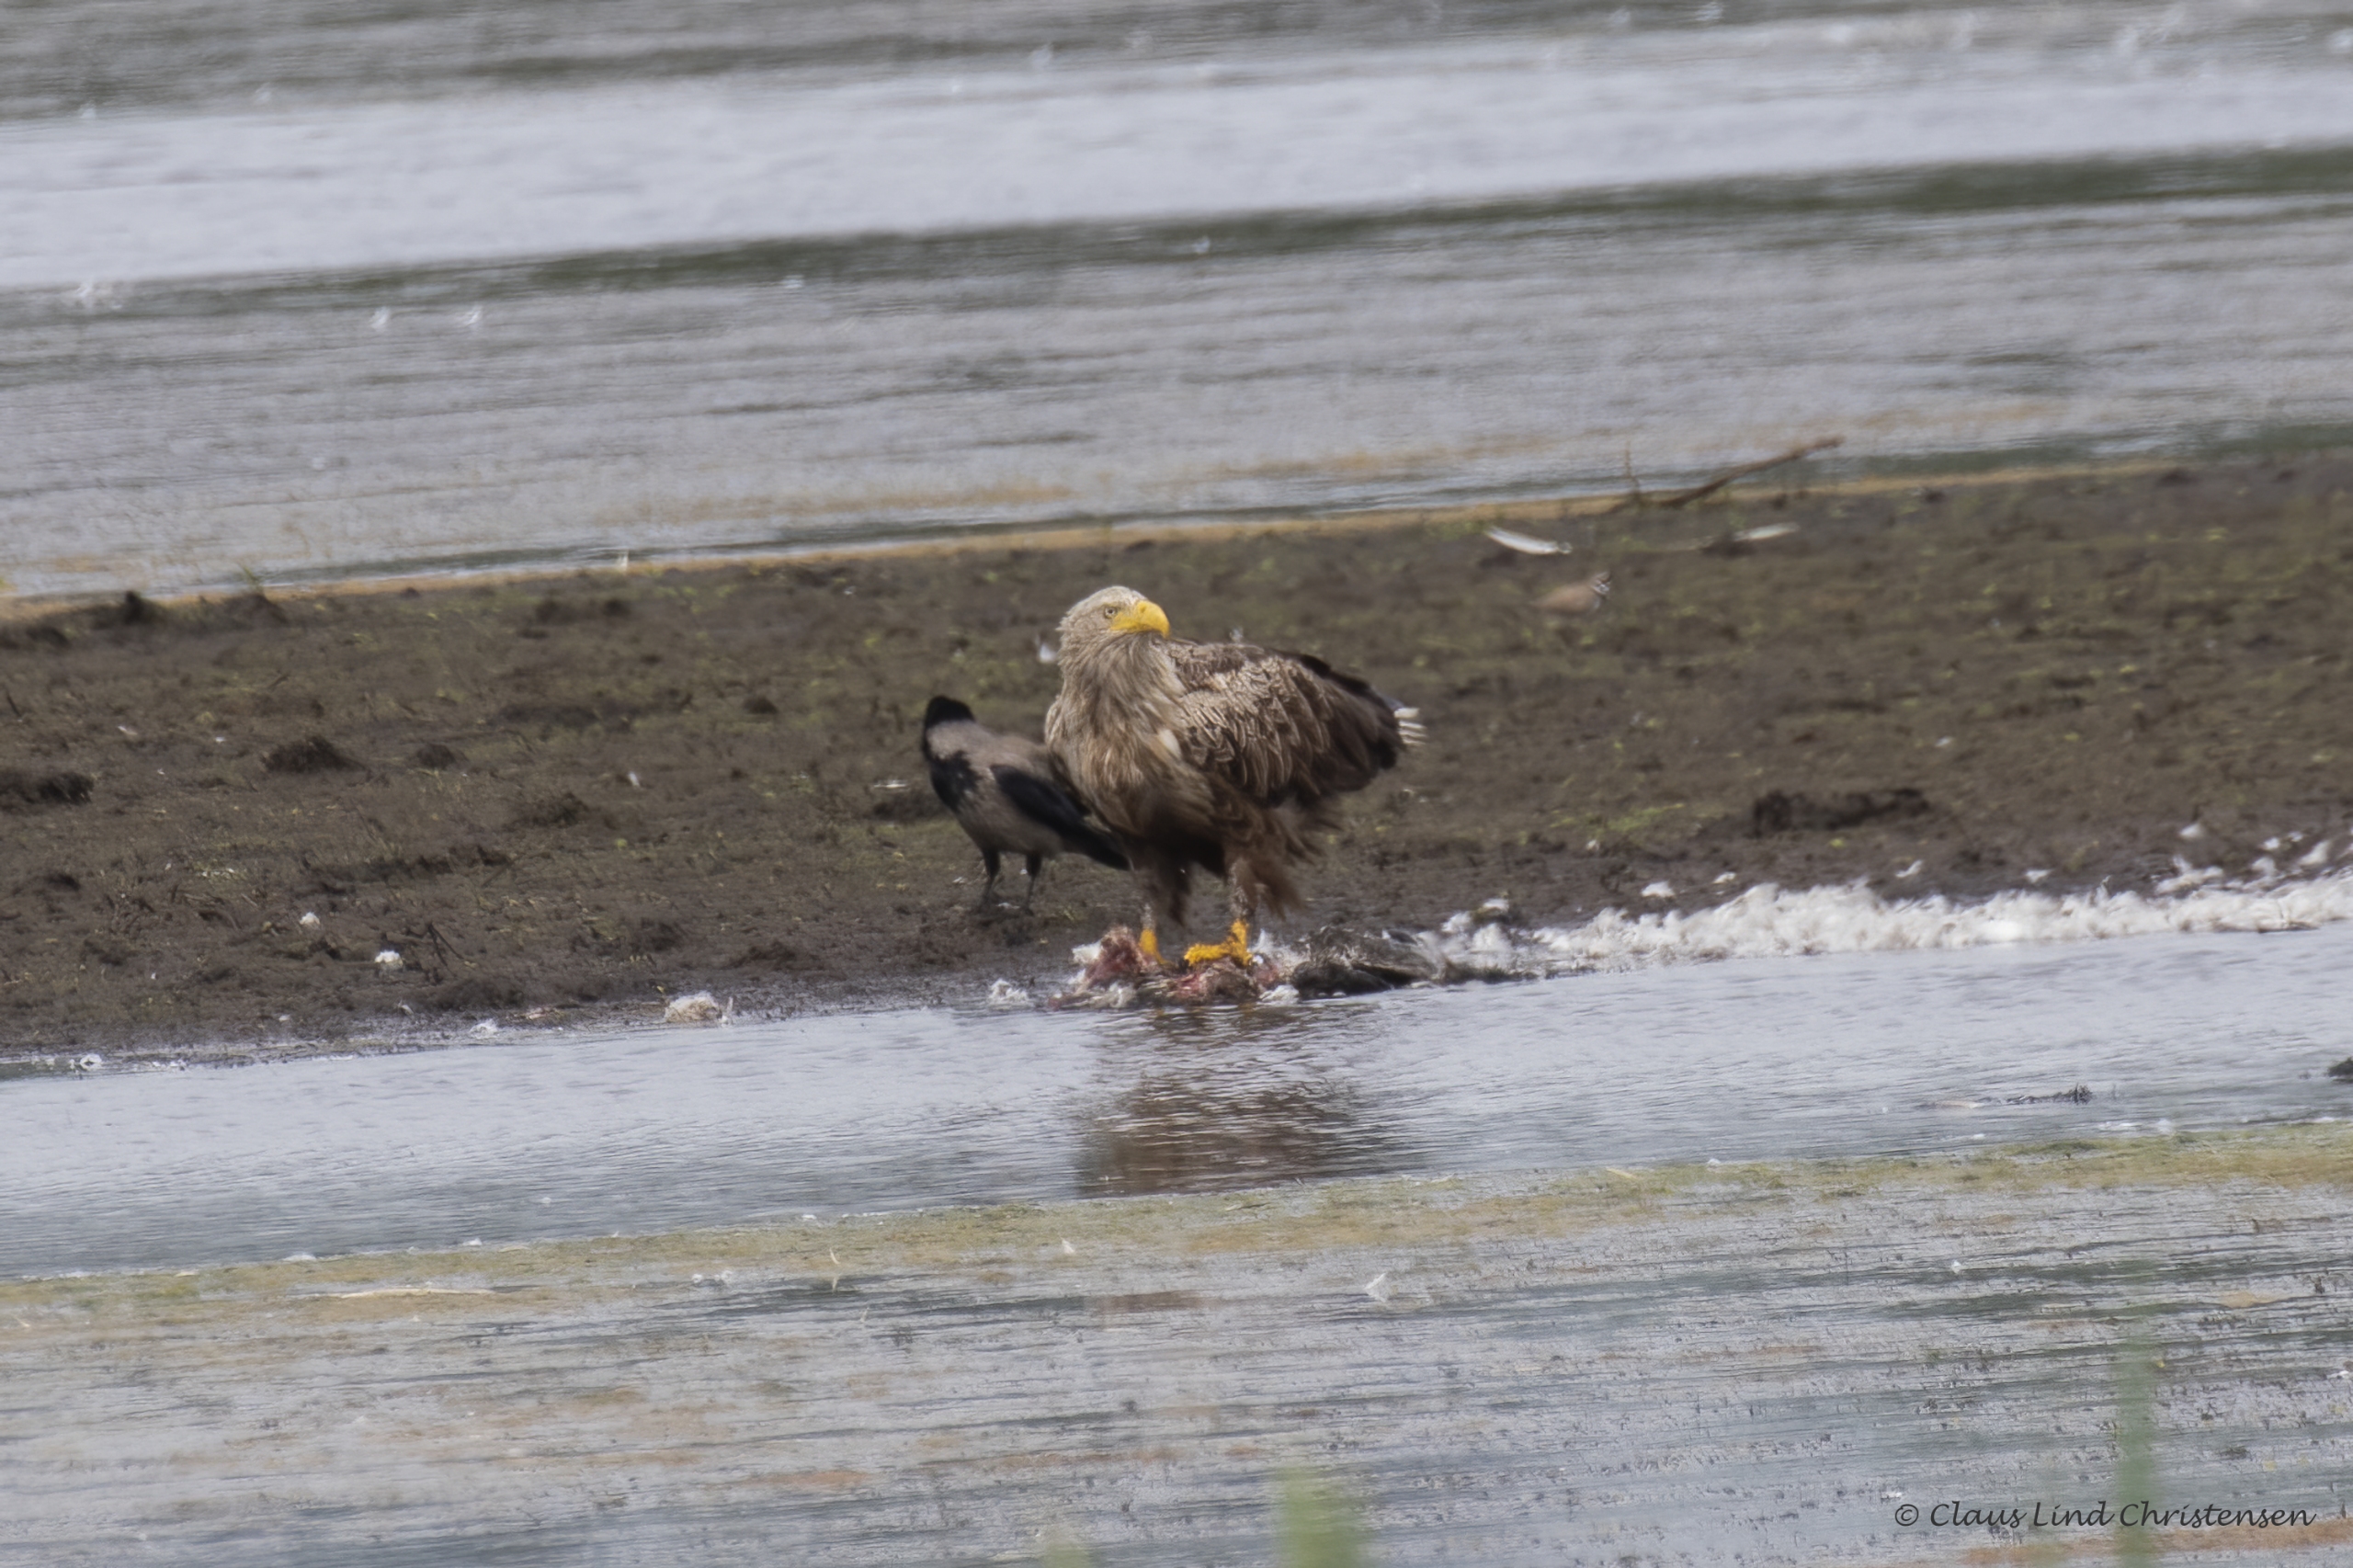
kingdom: Animalia
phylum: Chordata
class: Aves
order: Accipitriformes
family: Accipitridae
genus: Haliaeetus
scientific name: Haliaeetus albicilla
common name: Havørn
